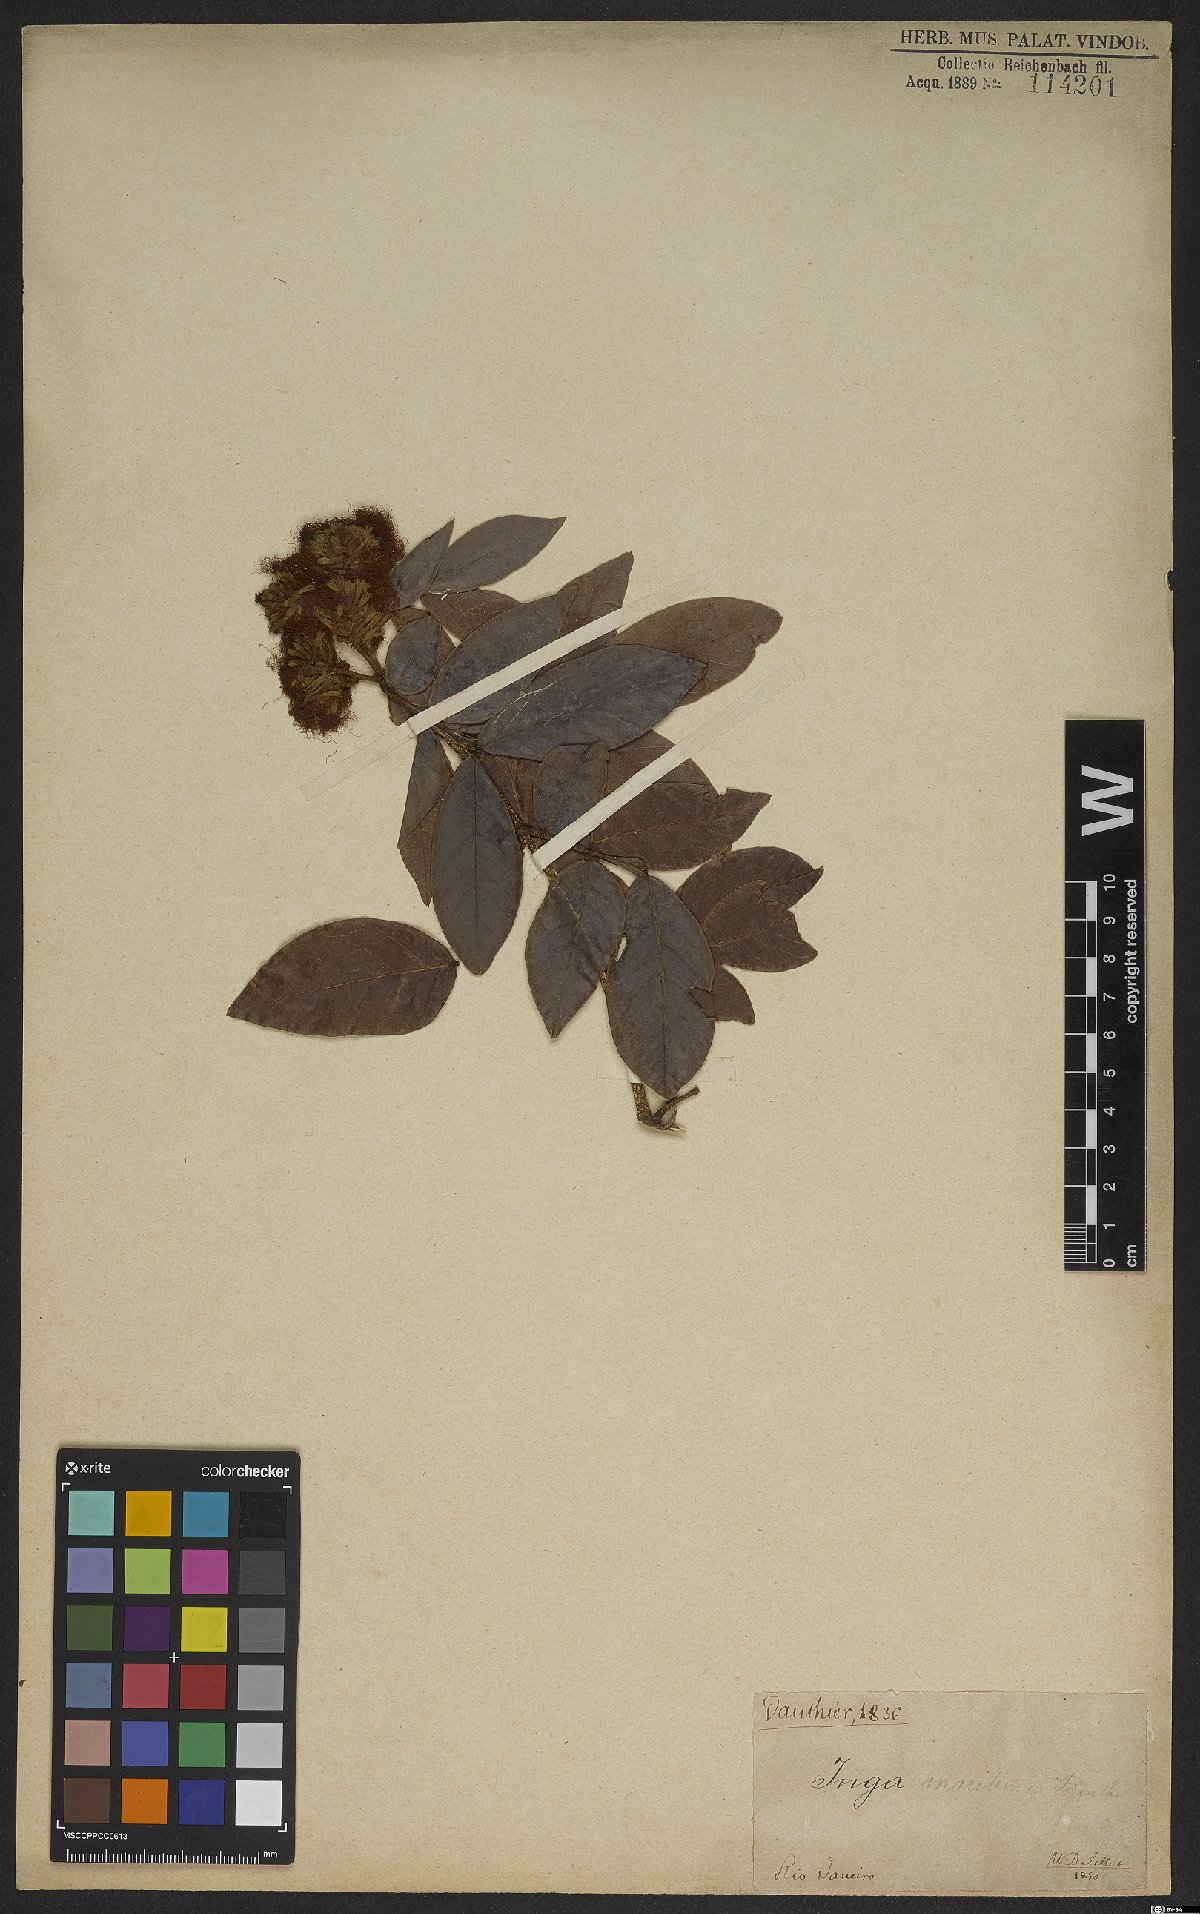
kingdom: Plantae
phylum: Tracheophyta
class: Magnoliopsida
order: Fabales
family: Fabaceae
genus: Inga
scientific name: Inga marginata
